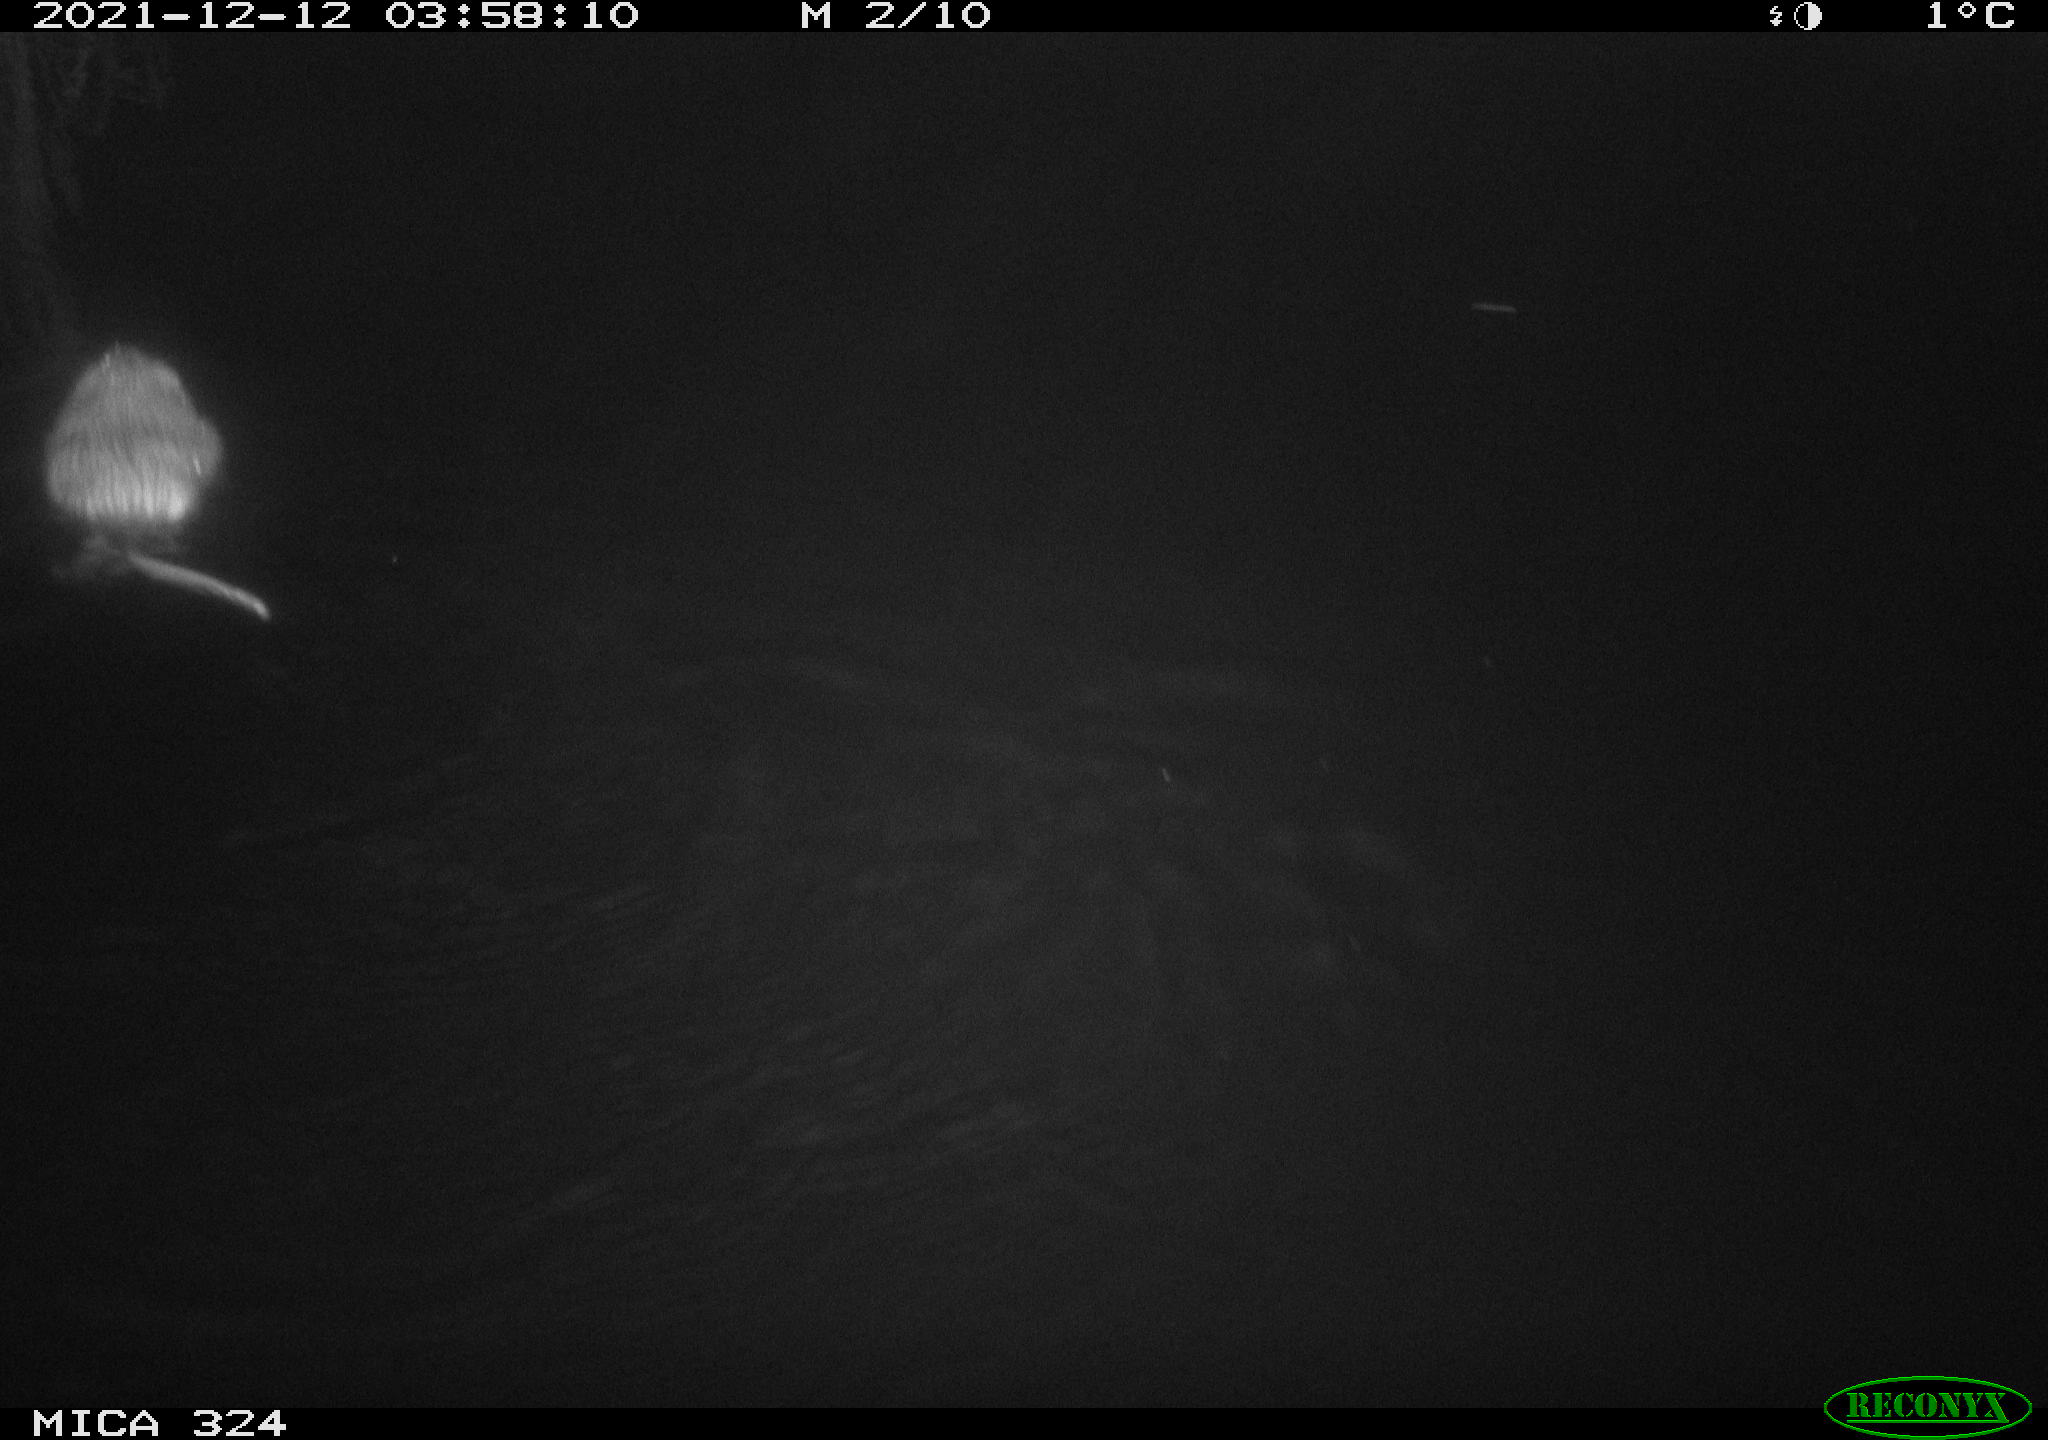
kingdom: Animalia
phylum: Chordata
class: Mammalia
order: Rodentia
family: Cricetidae
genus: Ondatra
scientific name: Ondatra zibethicus
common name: Muskrat
